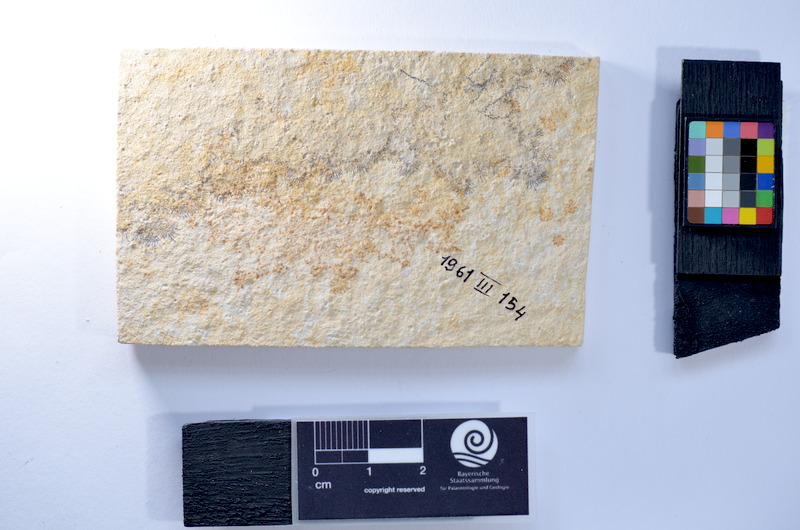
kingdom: Animalia
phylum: Chordata
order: Salmoniformes
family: Orthogonikleithridae
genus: Leptolepides
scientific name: Leptolepides
